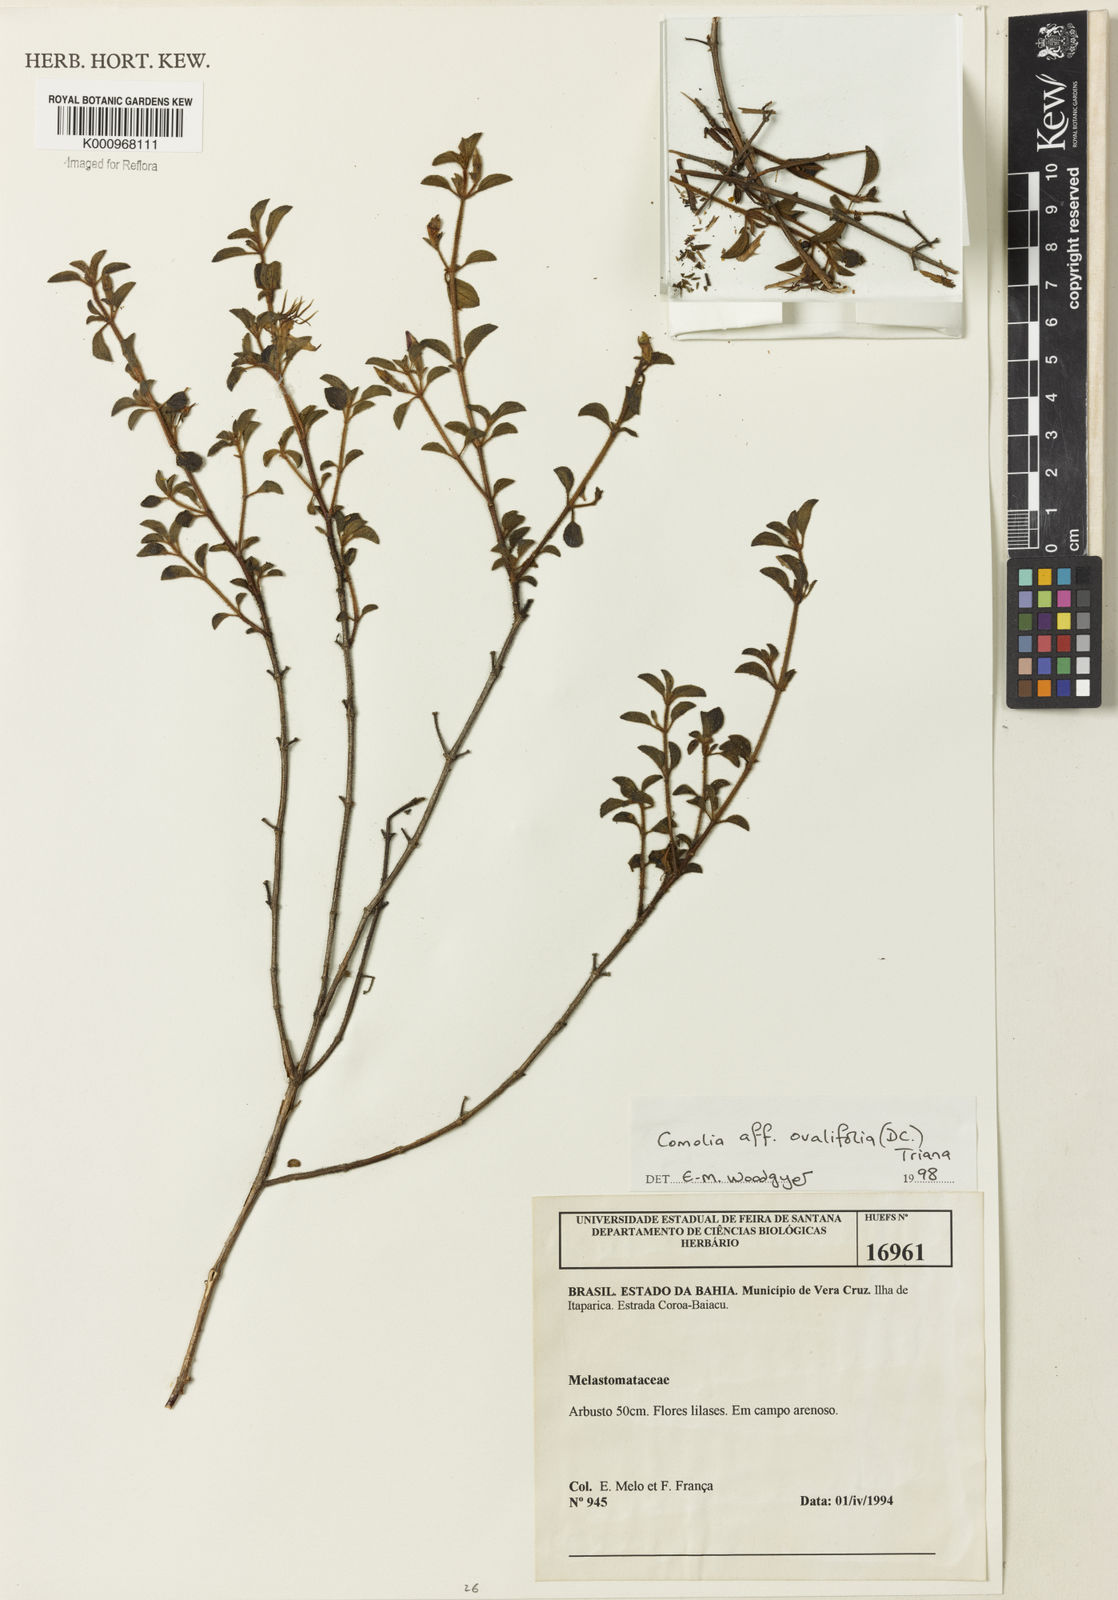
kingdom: Plantae
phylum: Tracheophyta
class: Magnoliopsida
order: Myrtales
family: Melastomataceae
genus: Comolia
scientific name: Comolia ovalifolia
